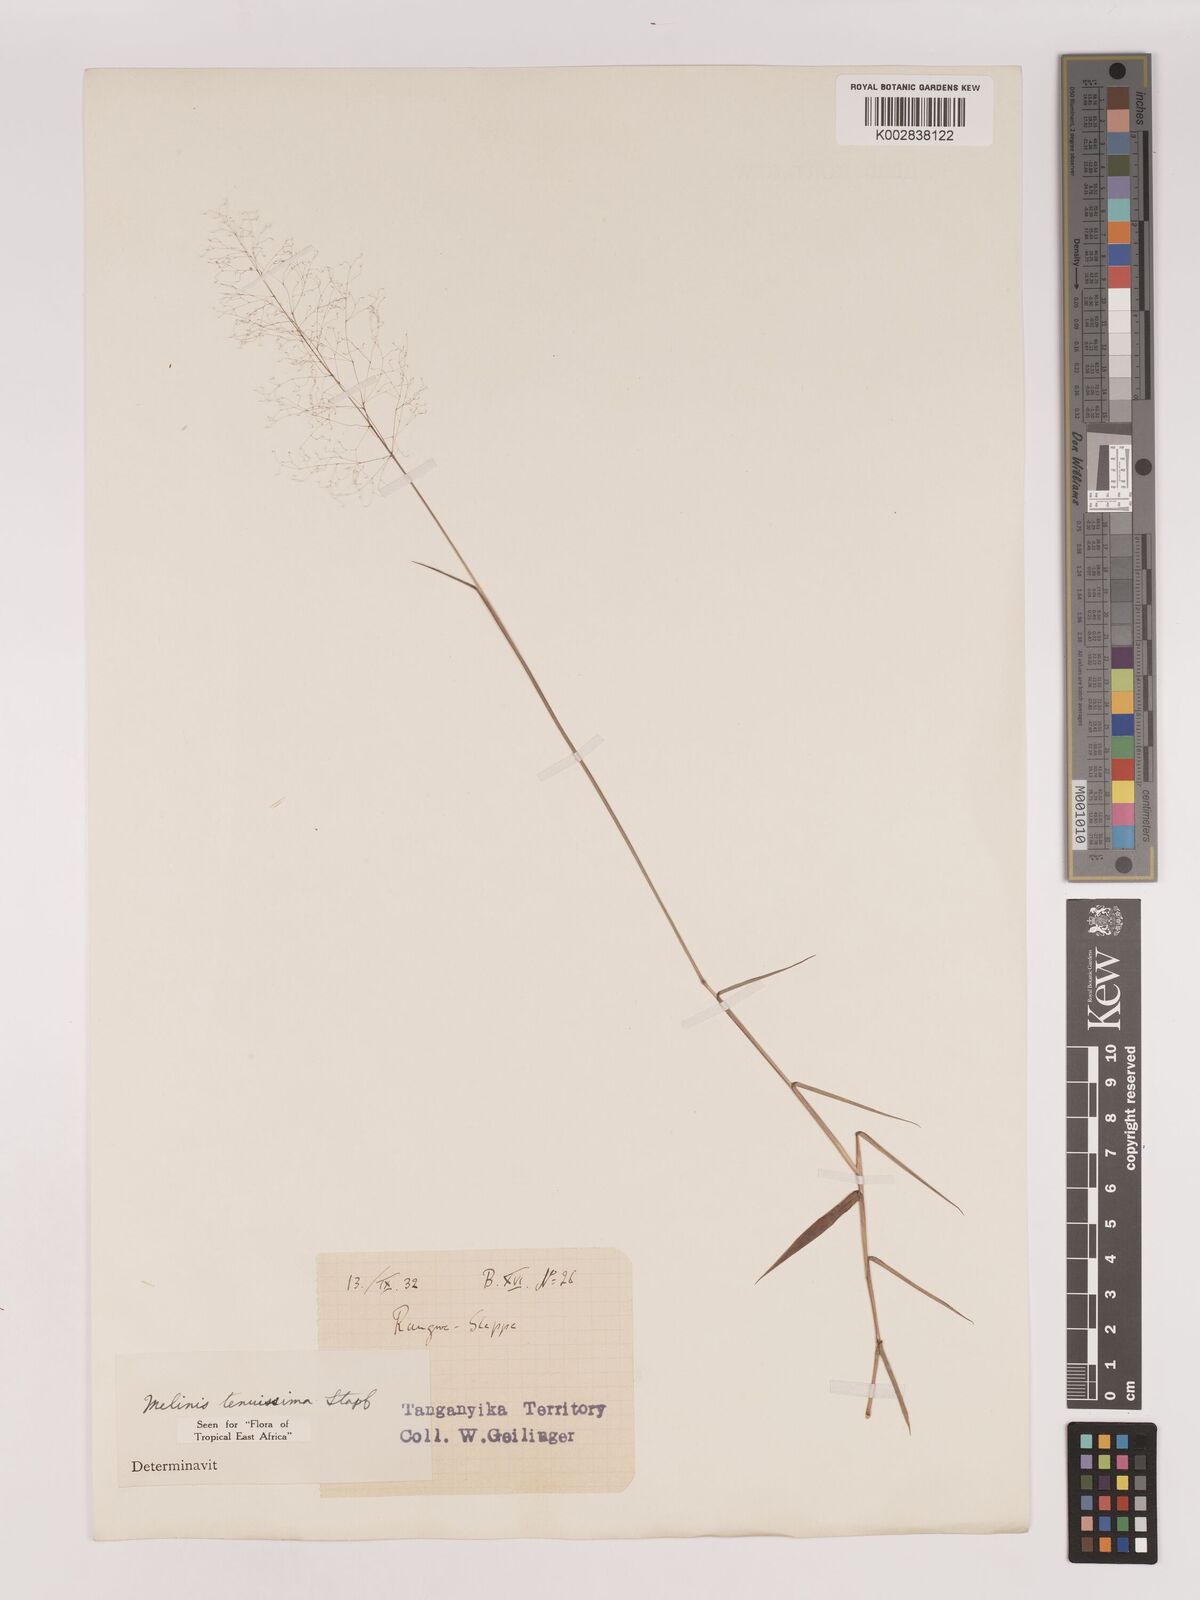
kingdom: Plantae
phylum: Tracheophyta
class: Liliopsida
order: Poales
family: Poaceae
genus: Melinis
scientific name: Melinis tenuissima
